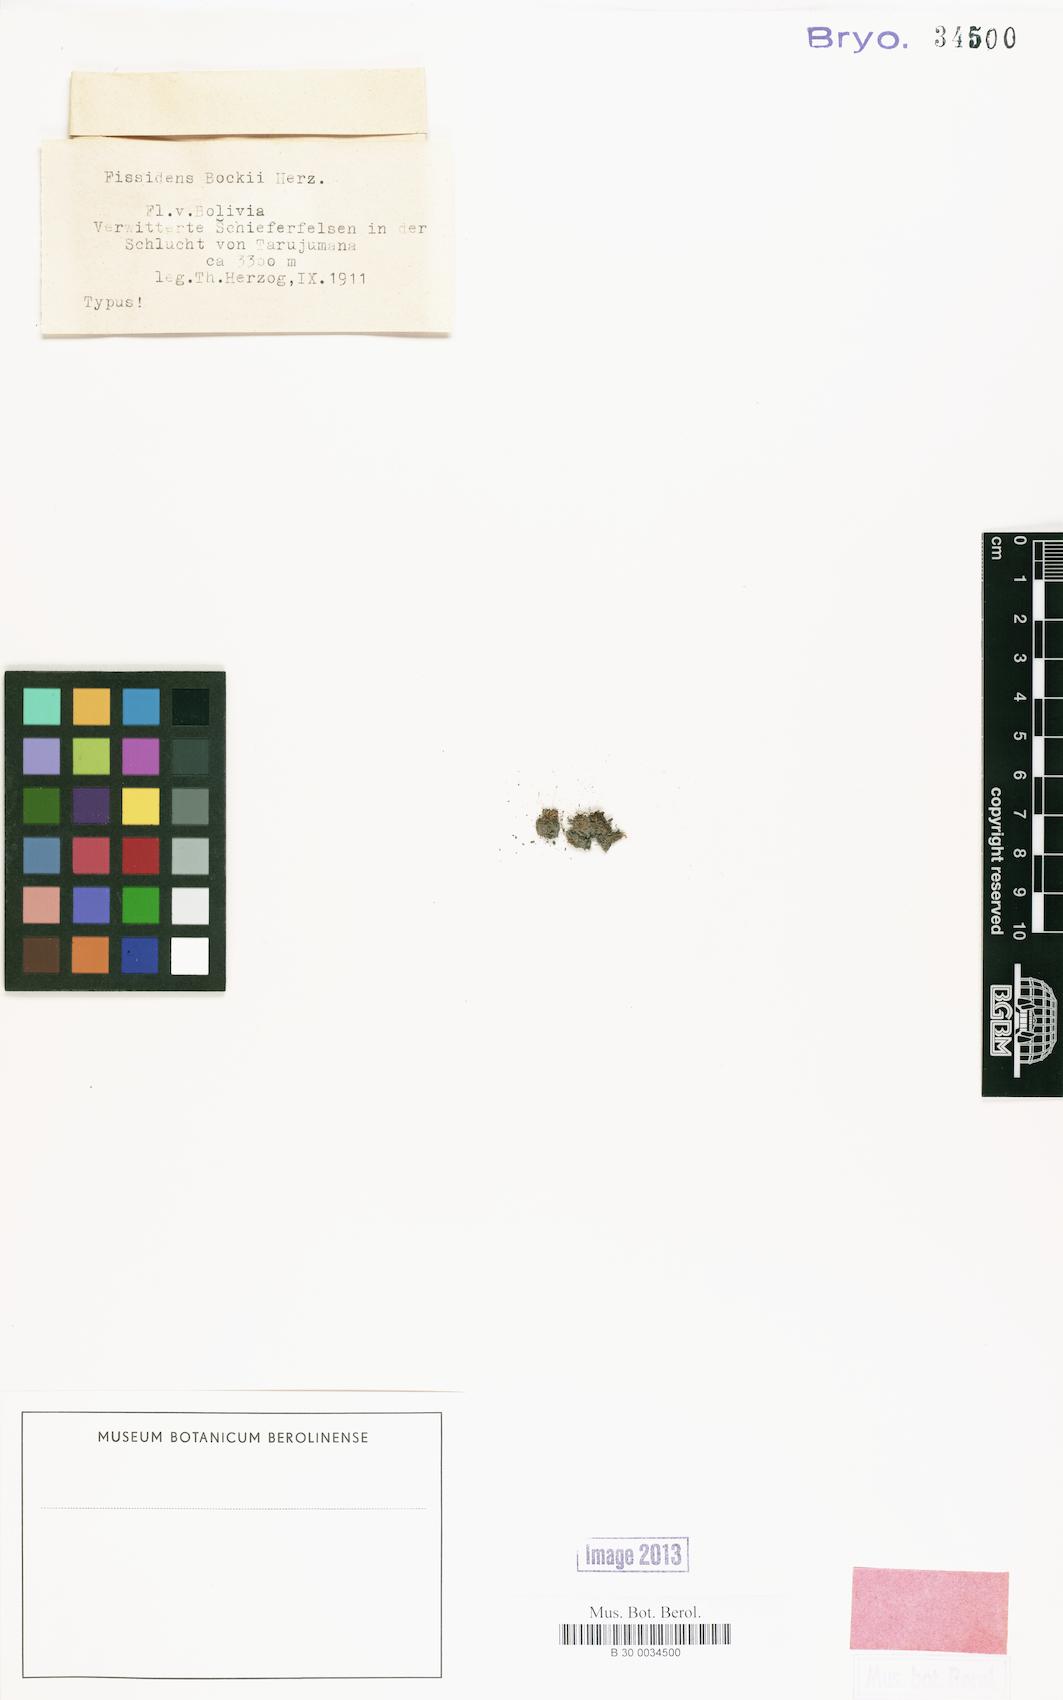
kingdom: Plantae
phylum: Bryophyta
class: Bryopsida
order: Dicranales
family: Fissidentaceae
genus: Fissidens
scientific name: Fissidens curvatus
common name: Milo's fissidens moss
